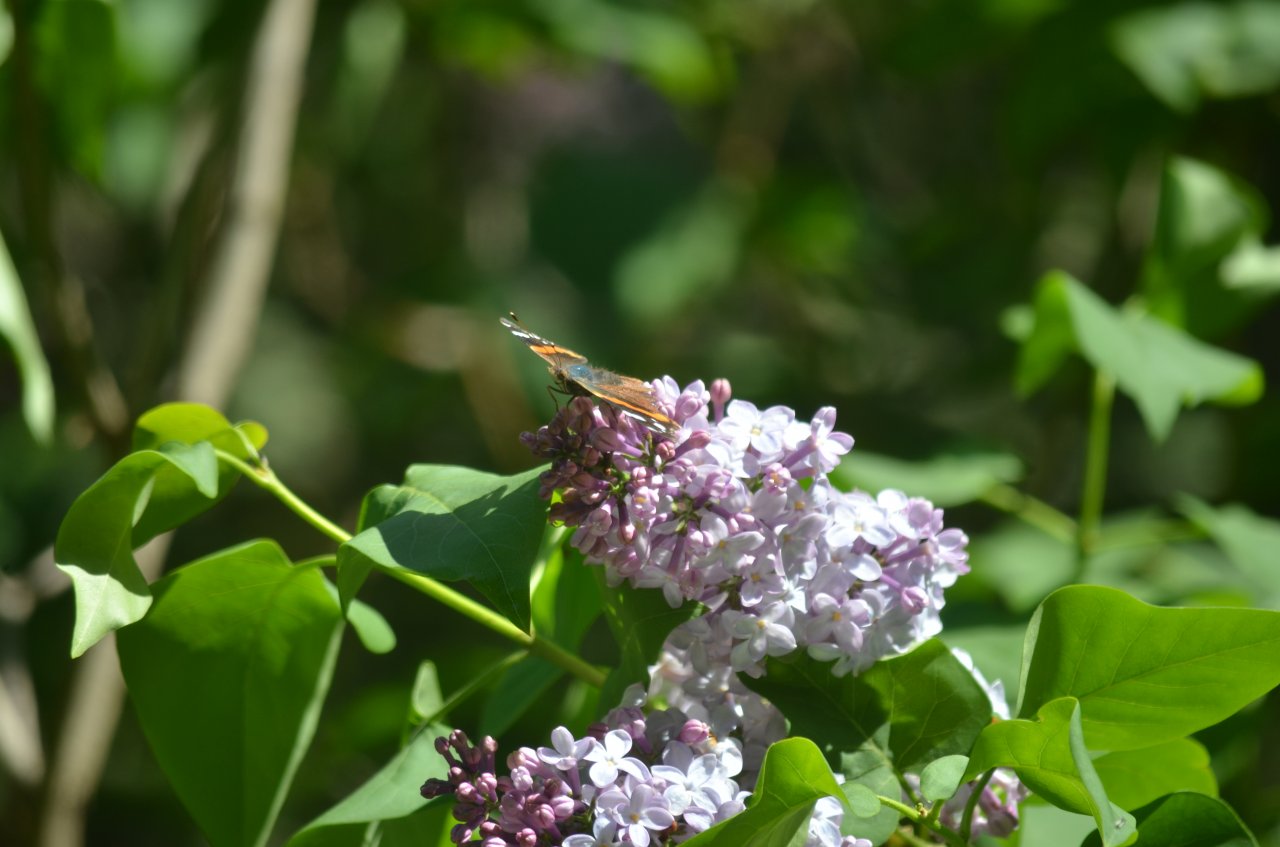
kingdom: Animalia
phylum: Arthropoda
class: Insecta
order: Lepidoptera
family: Nymphalidae
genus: Vanessa
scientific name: Vanessa atalanta
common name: Red Admiral
